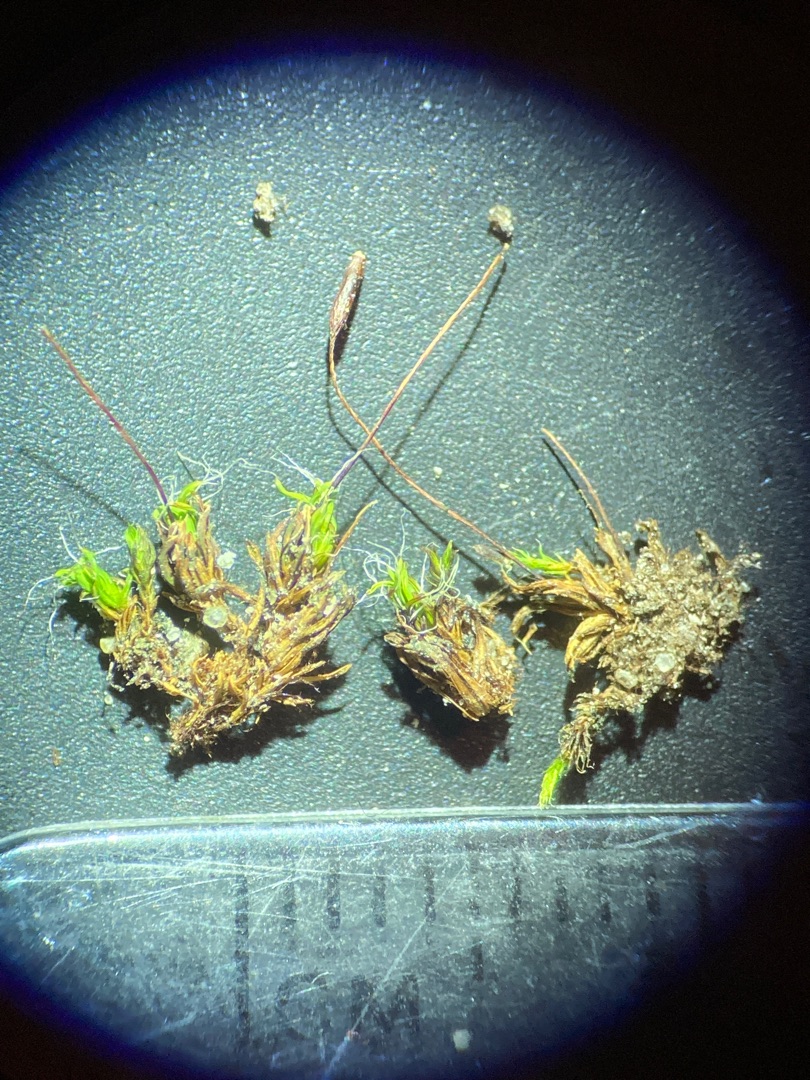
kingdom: Plantae
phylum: Bryophyta
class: Bryopsida
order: Pottiales
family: Pottiaceae
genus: Tortula
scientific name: Tortula muralis
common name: Mur-snotand
